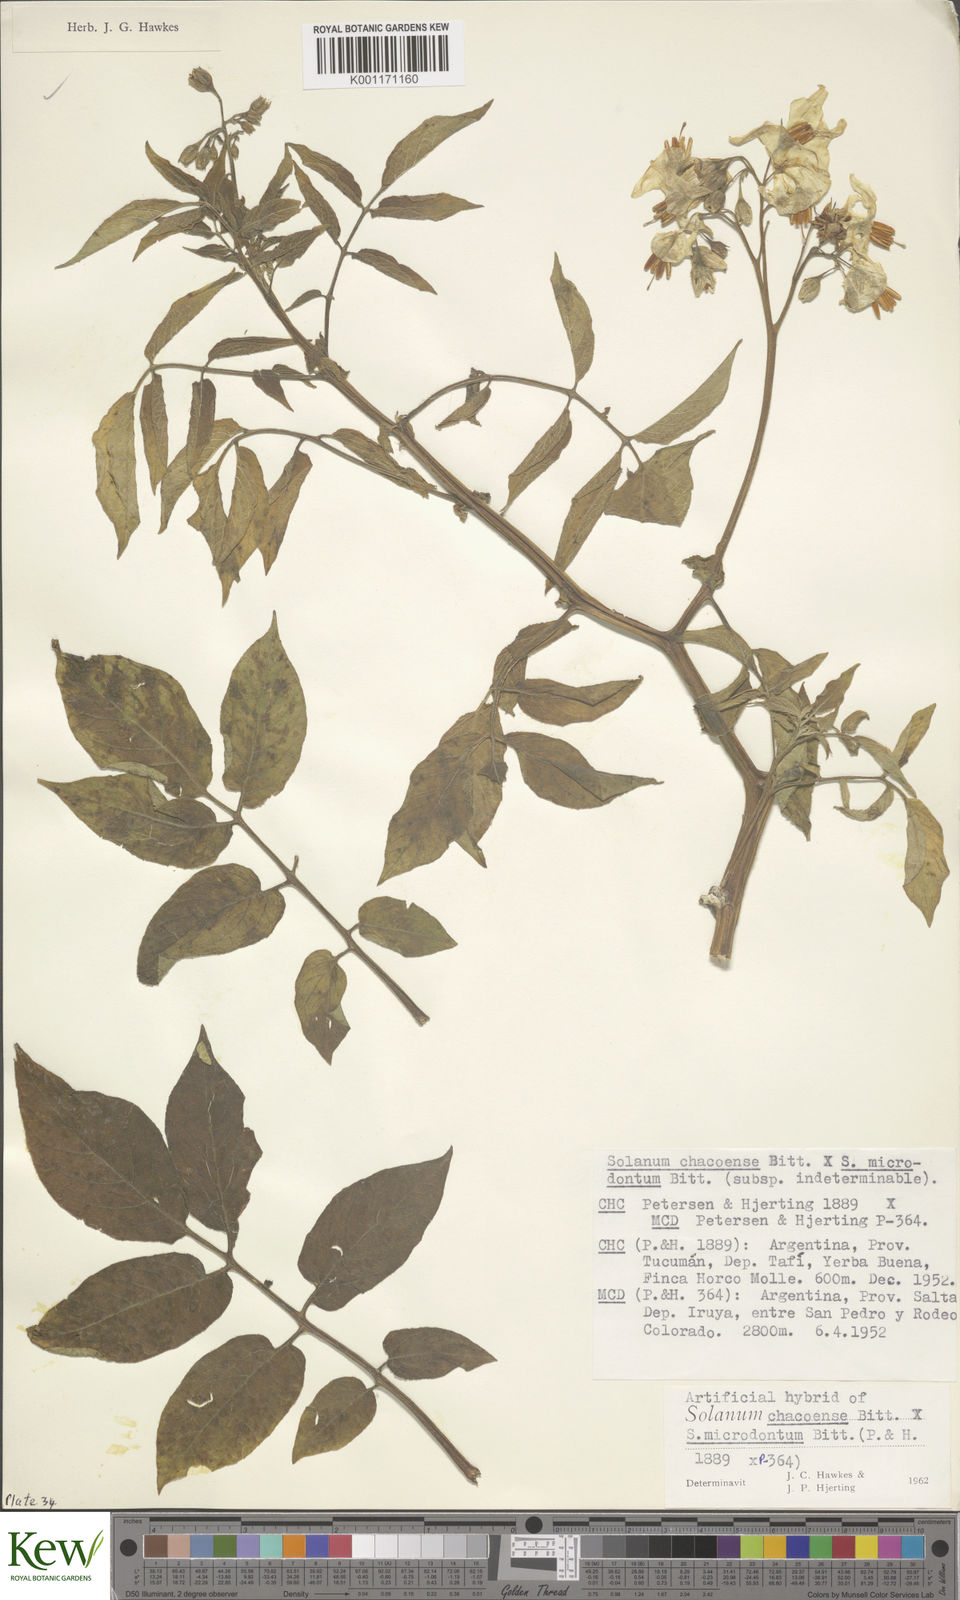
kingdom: Plantae
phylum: Tracheophyta
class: Magnoliopsida
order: Solanales
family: Solanaceae
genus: Solanum
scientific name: Solanum chacoense
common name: Chaco potato
